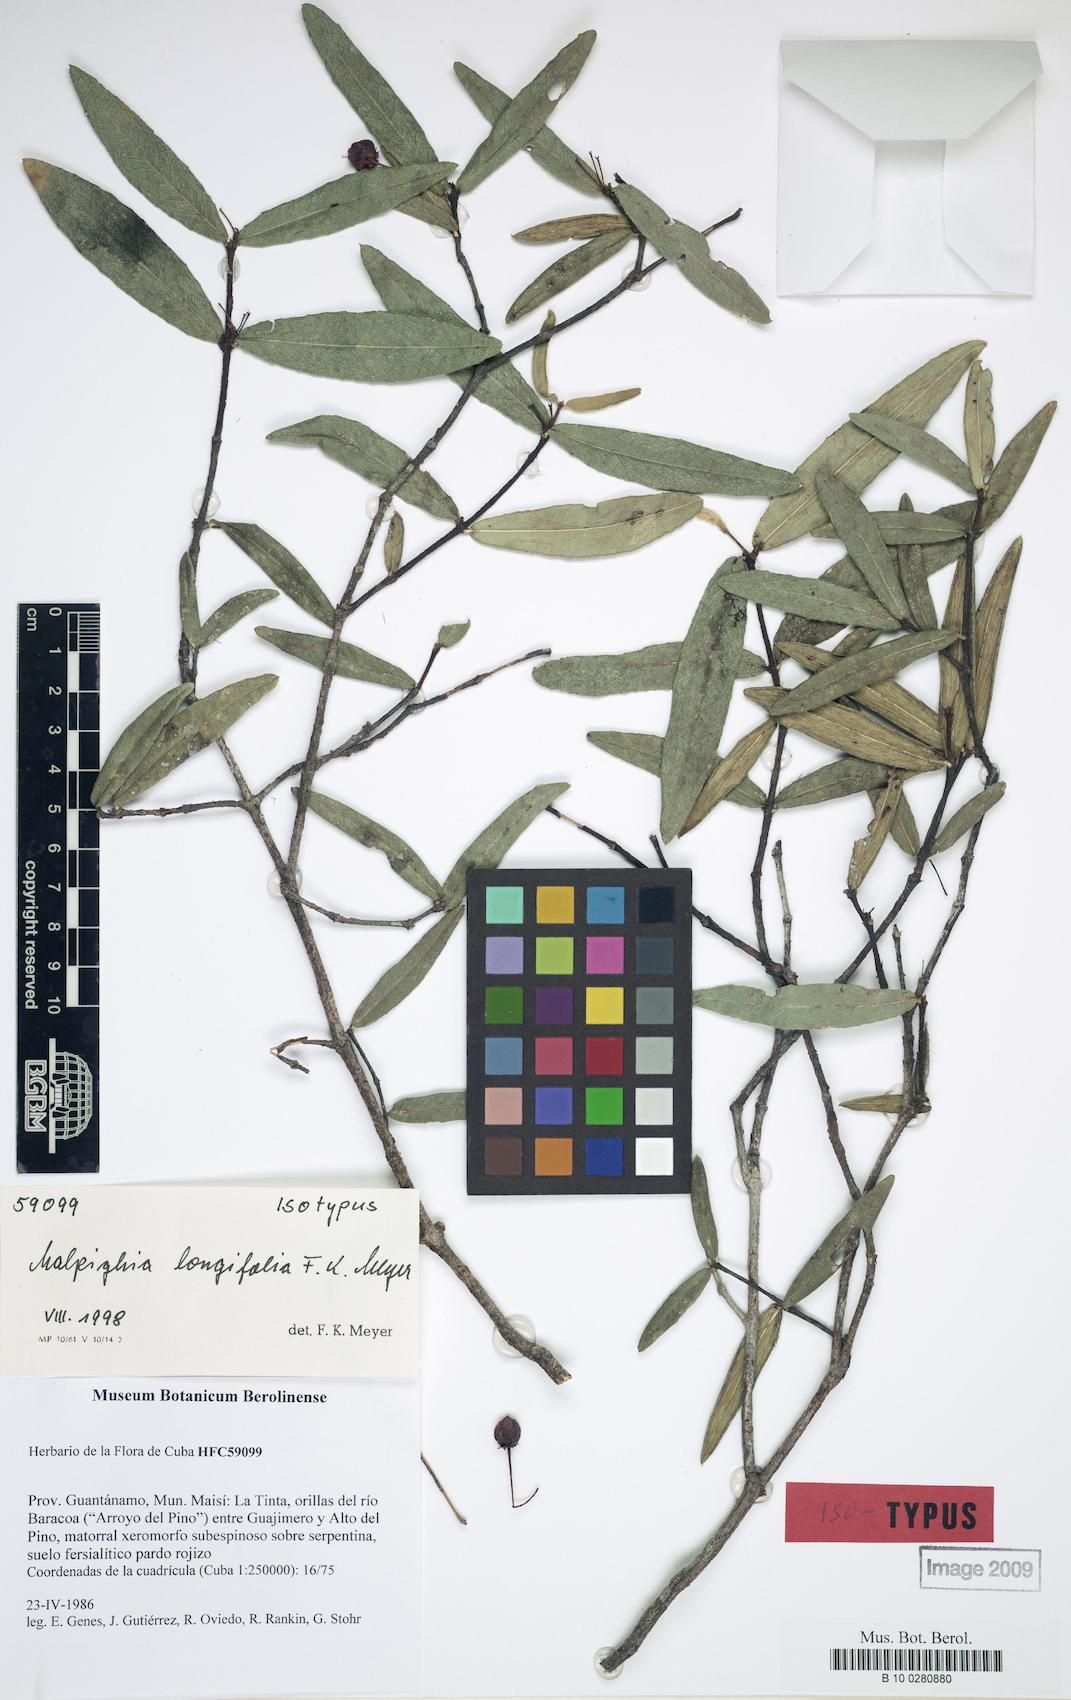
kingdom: Plantae
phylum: Tracheophyta
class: Magnoliopsida
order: Malpighiales
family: Malpighiaceae
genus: Malpighia
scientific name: Malpighia longifolia
